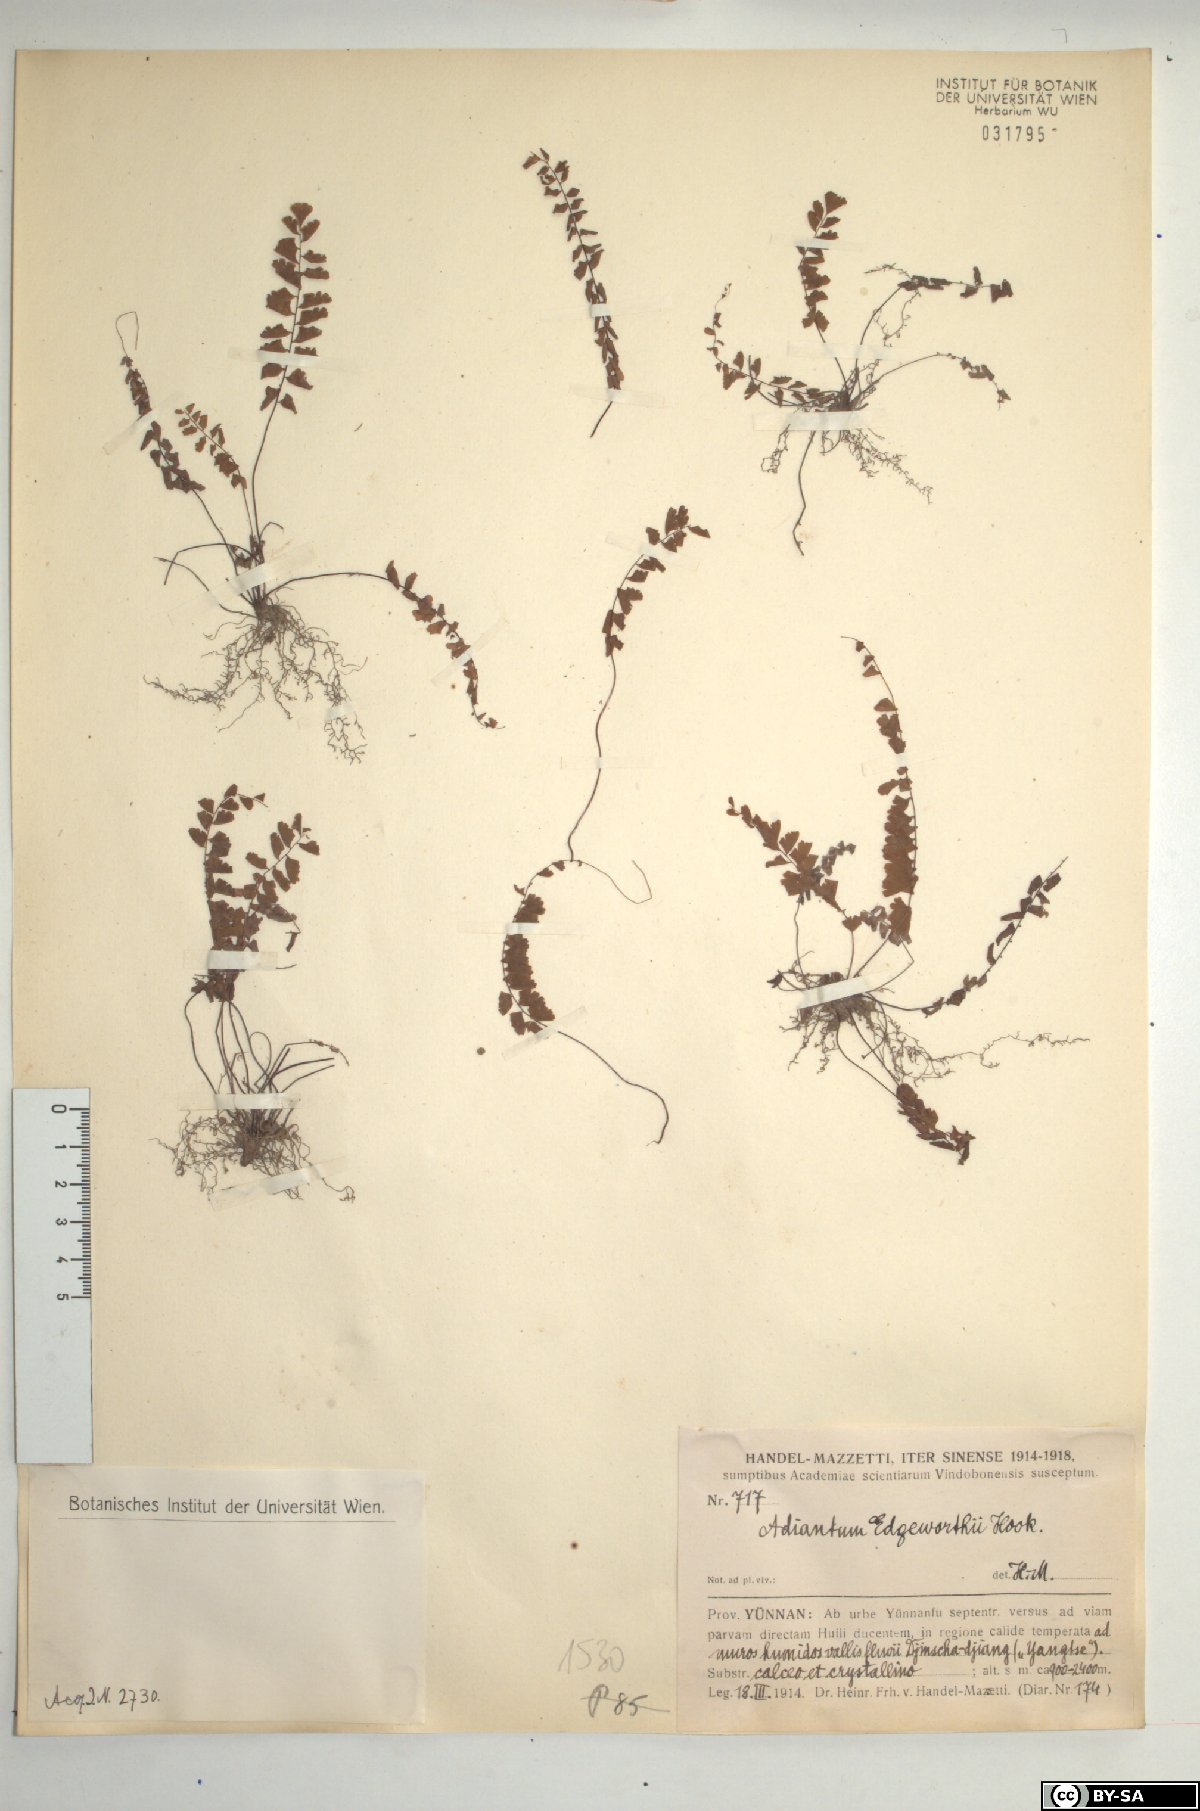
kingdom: Plantae
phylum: Tracheophyta
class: Polypodiopsida
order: Polypodiales
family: Pteridaceae
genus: Adiantum
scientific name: Adiantum edgeworthii
